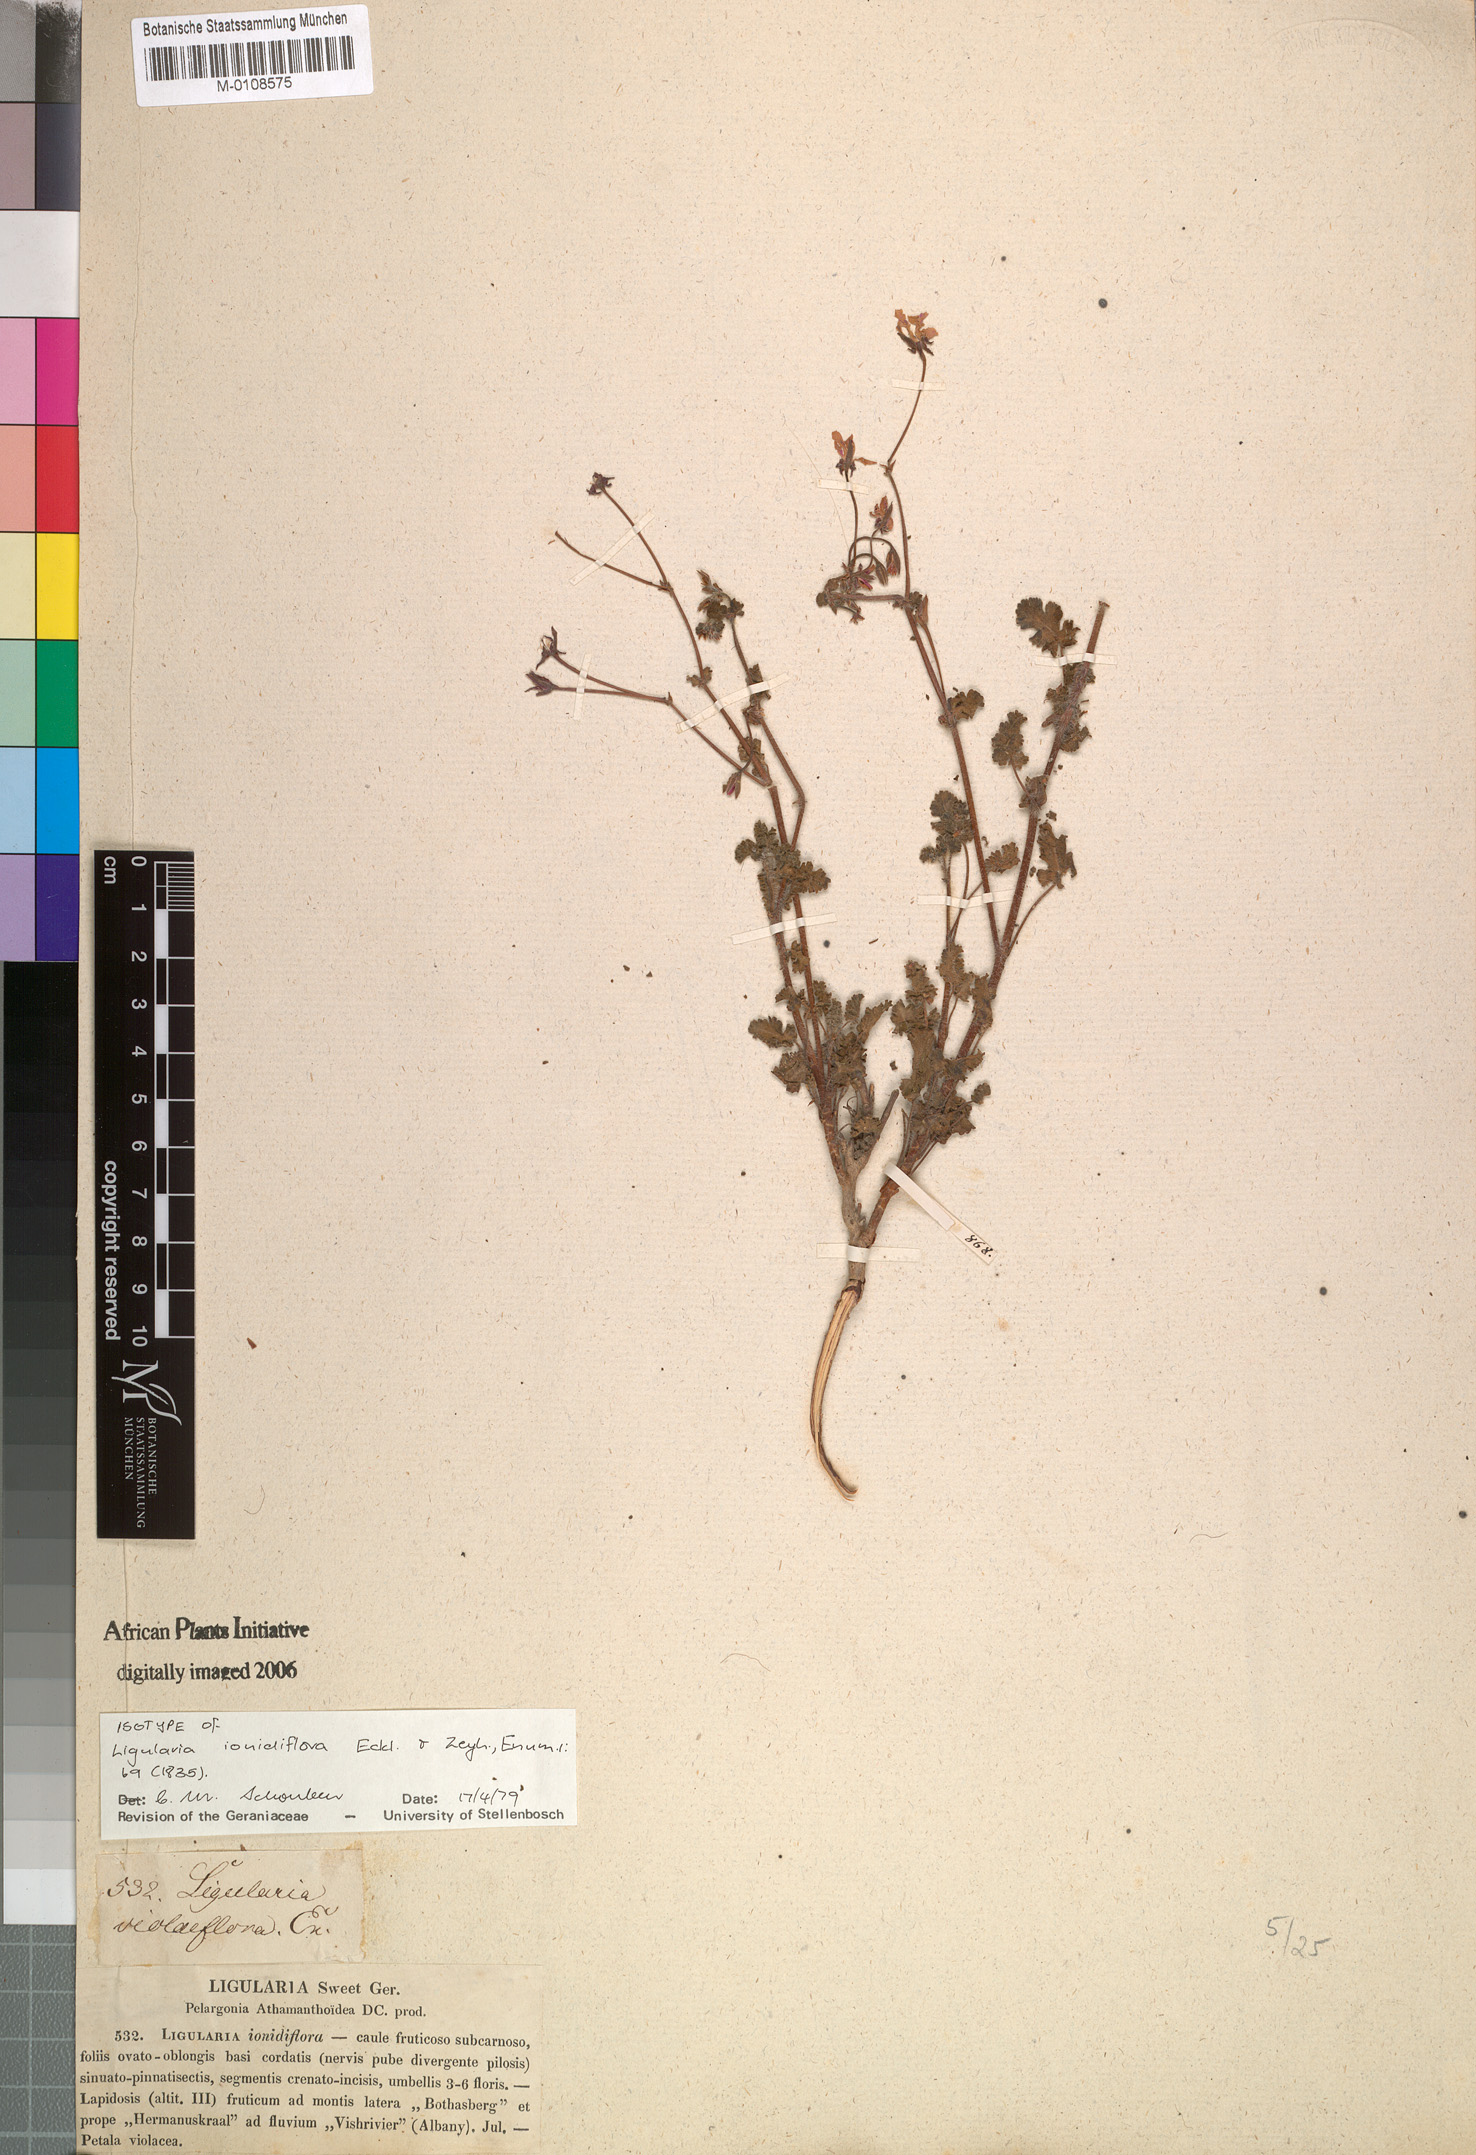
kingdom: Plantae
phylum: Tracheophyta
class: Magnoliopsida
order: Geraniales
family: Geraniaceae
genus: Pelargonium
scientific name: Pelargonium ionidiflorum
